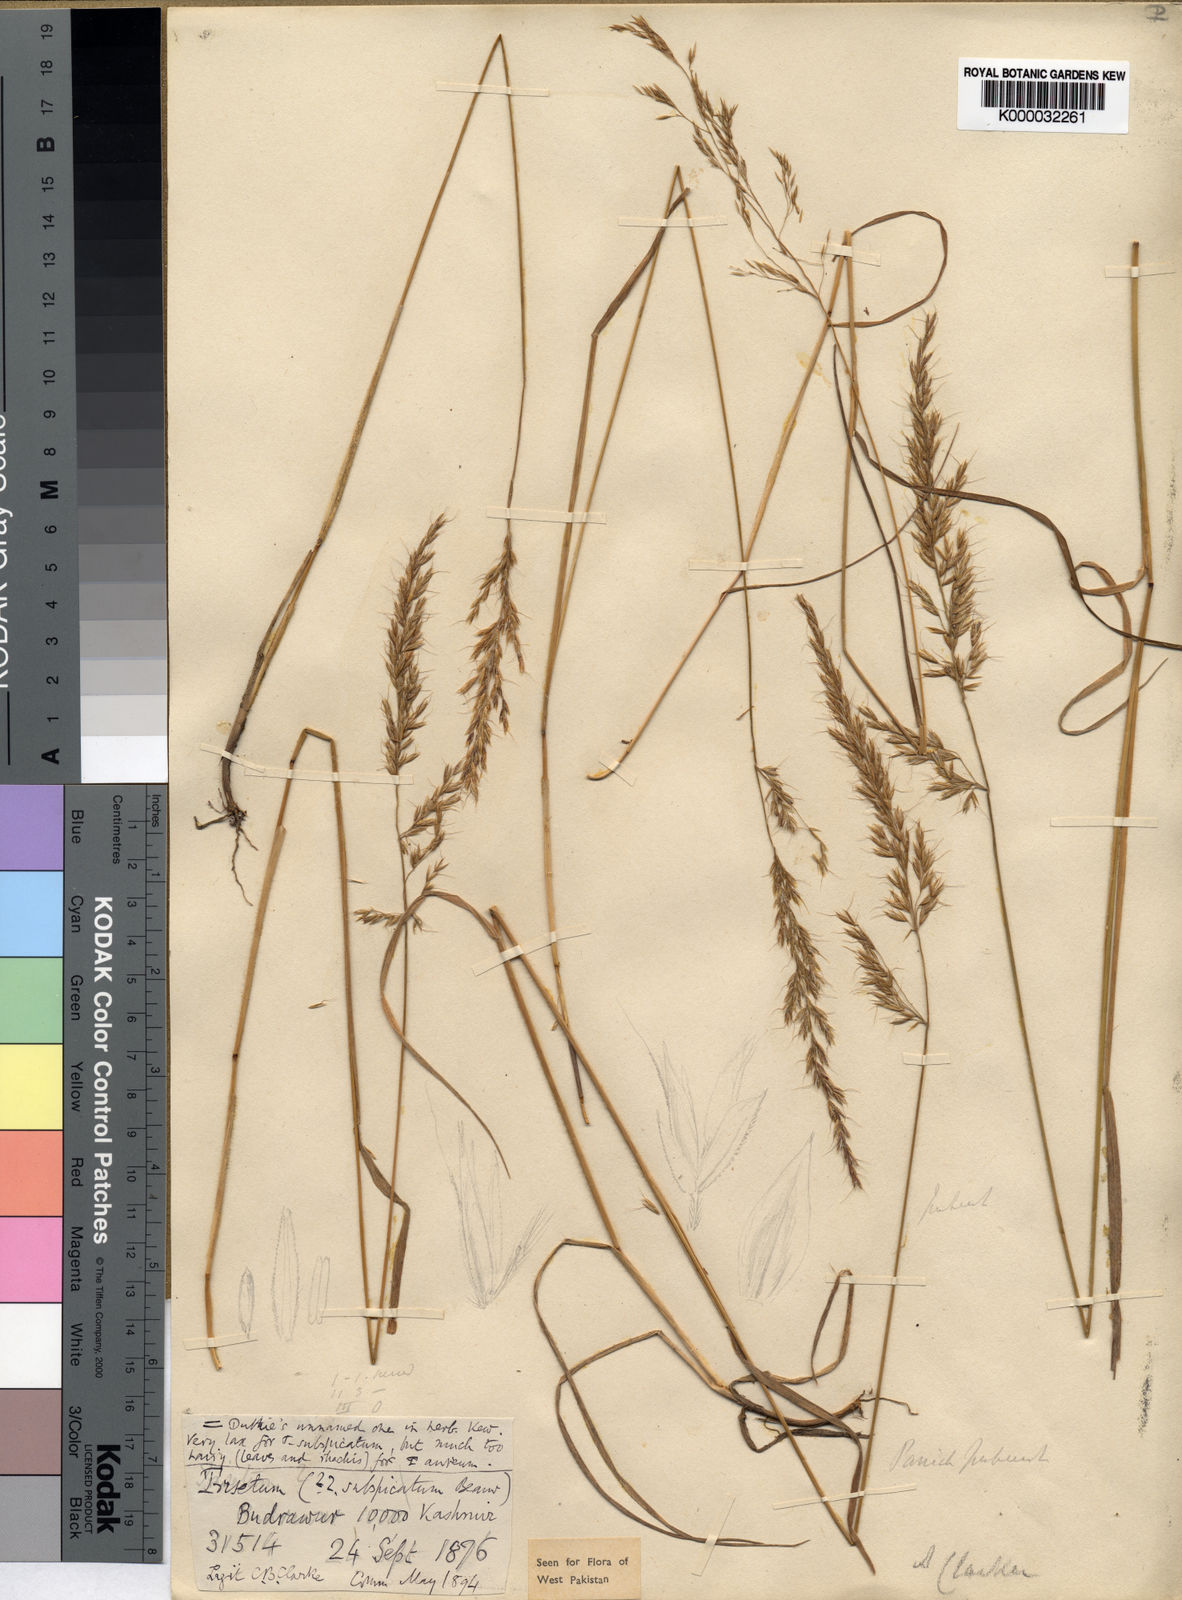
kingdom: Plantae
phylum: Tracheophyta
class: Liliopsida
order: Poales
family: Poaceae
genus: Trisetum
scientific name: Trisetum clarkei
